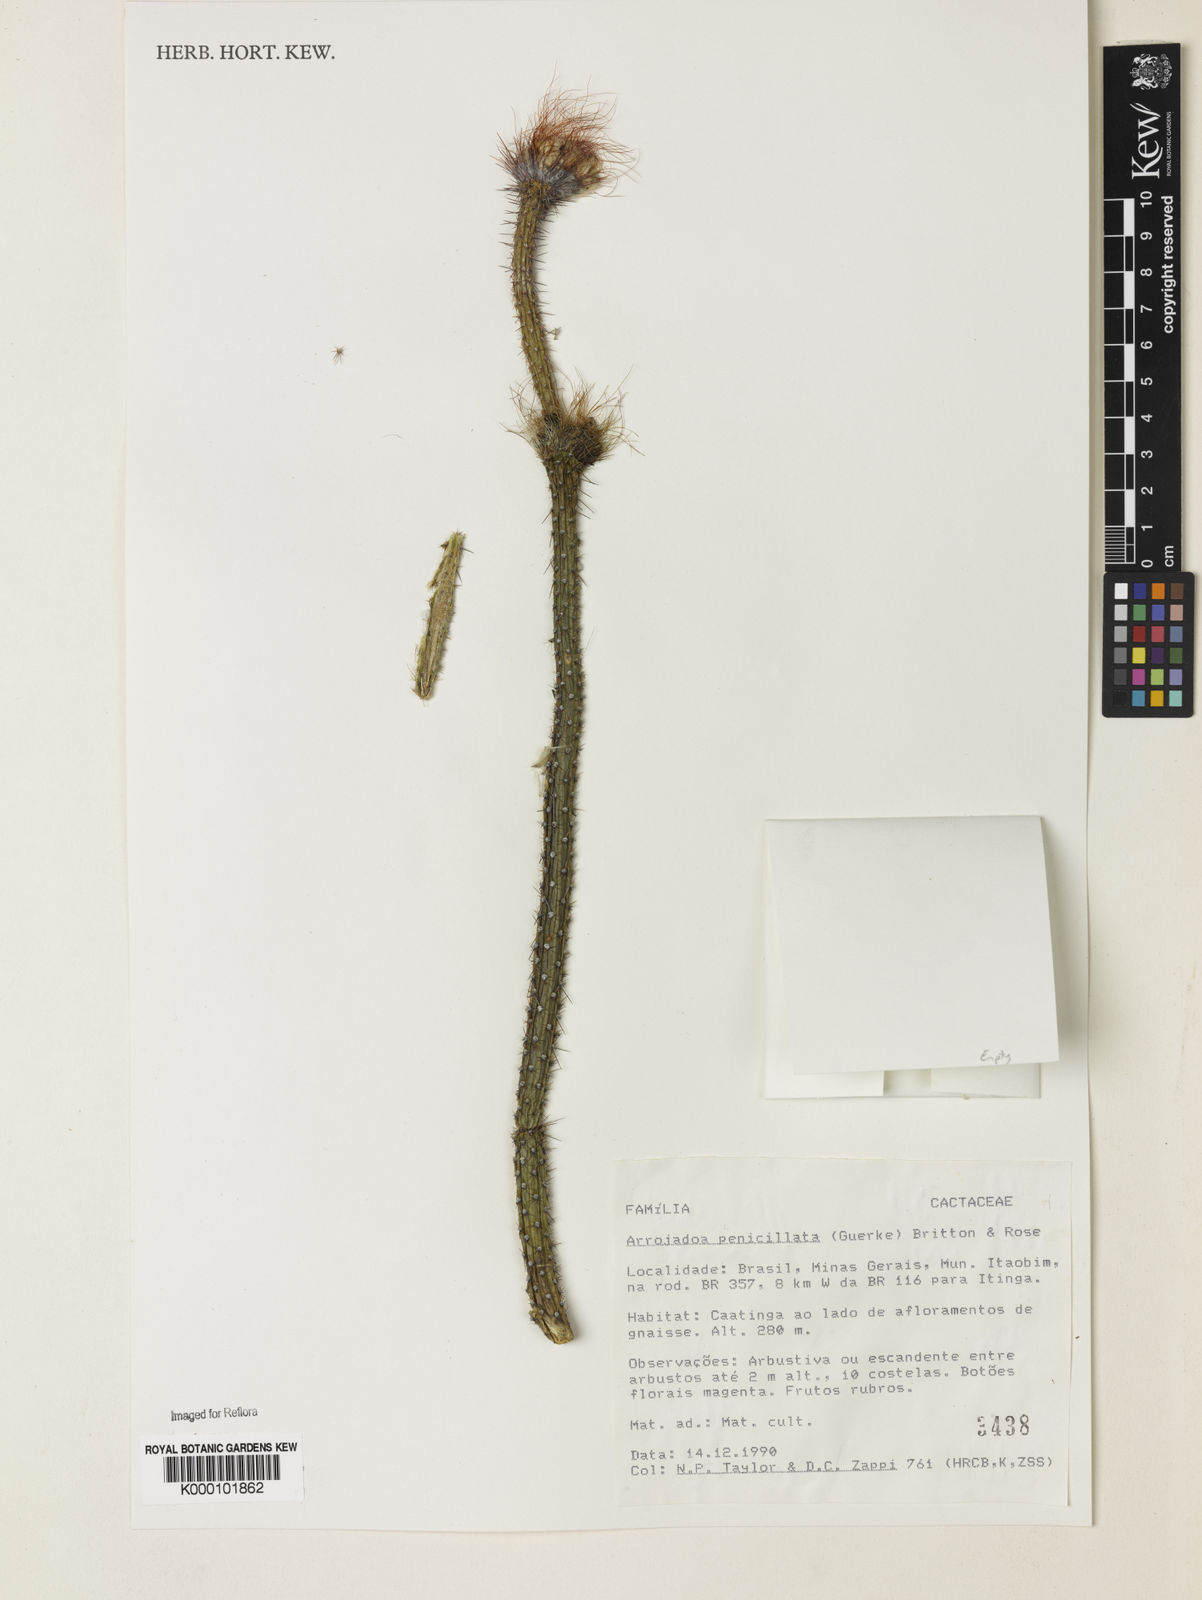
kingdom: Plantae
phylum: Tracheophyta
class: Magnoliopsida
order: Caryophyllales
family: Cactaceae
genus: Arrojadoa
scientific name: Arrojadoa
